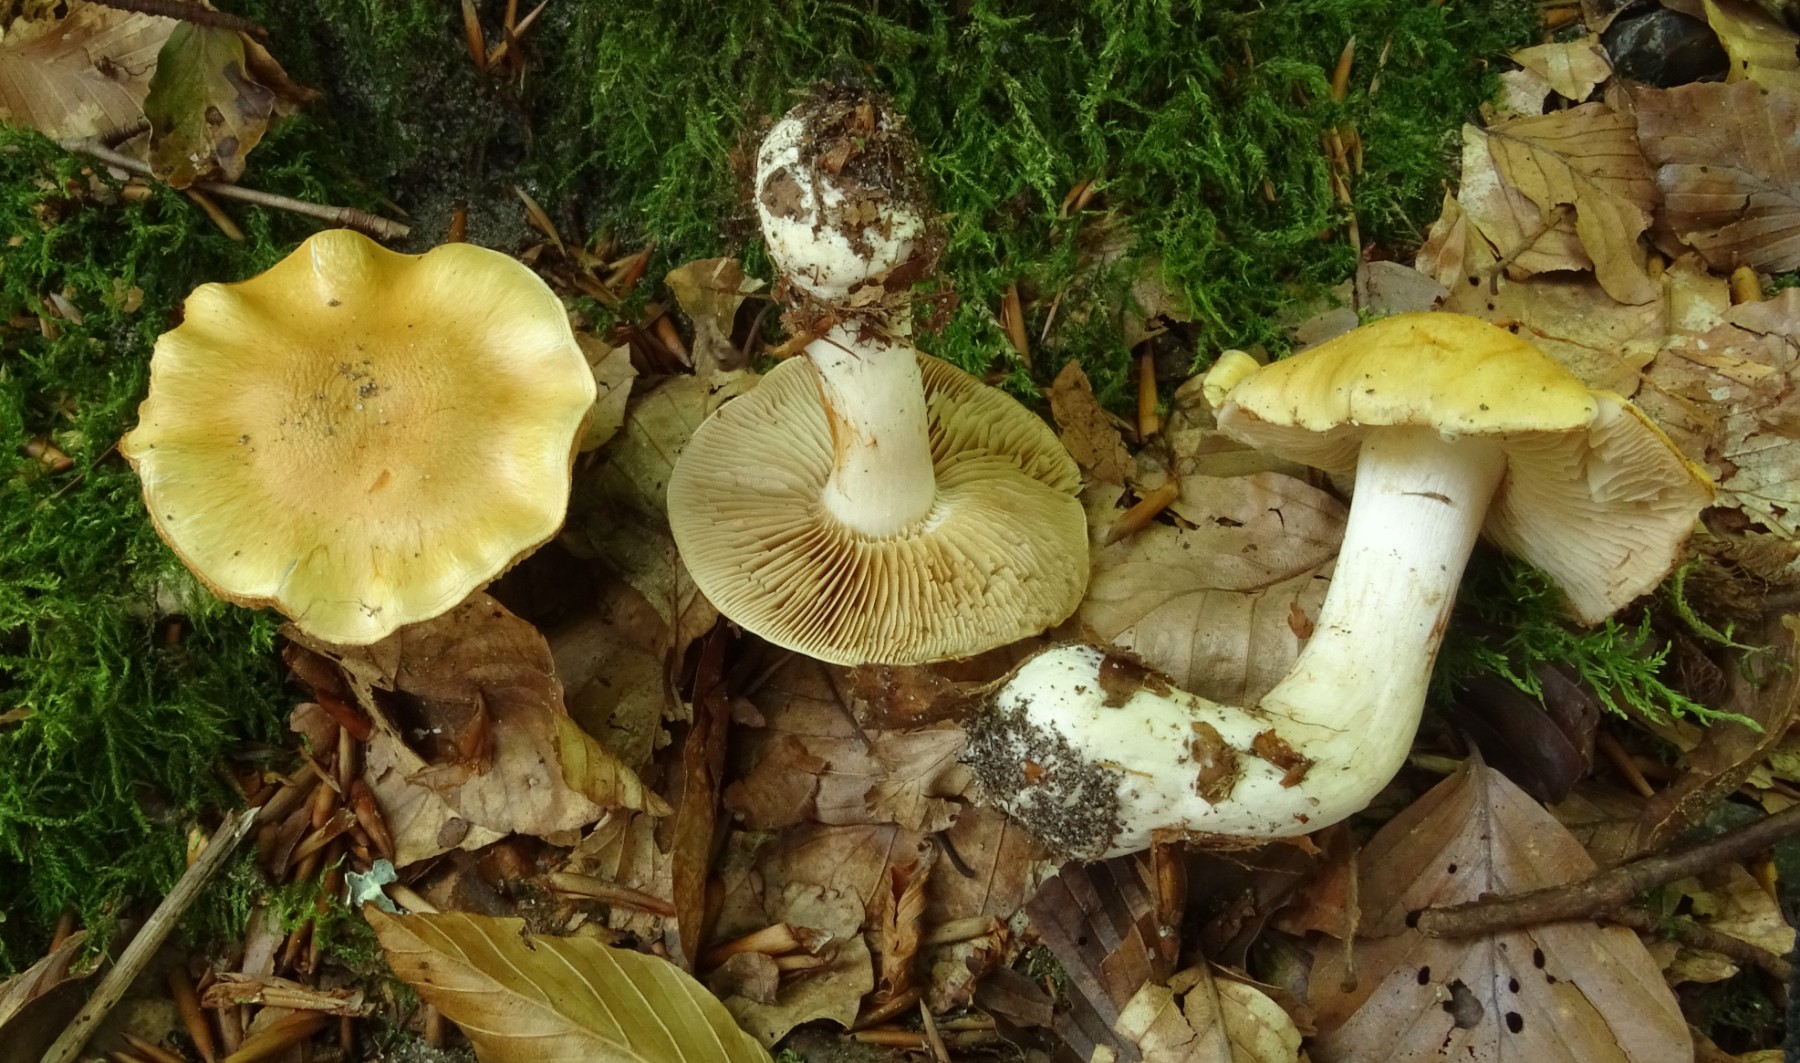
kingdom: Fungi
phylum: Basidiomycota
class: Agaricomycetes
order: Agaricales
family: Cortinariaceae
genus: Thaxterogaster
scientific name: Thaxterogaster emollitus
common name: besk slørhat
